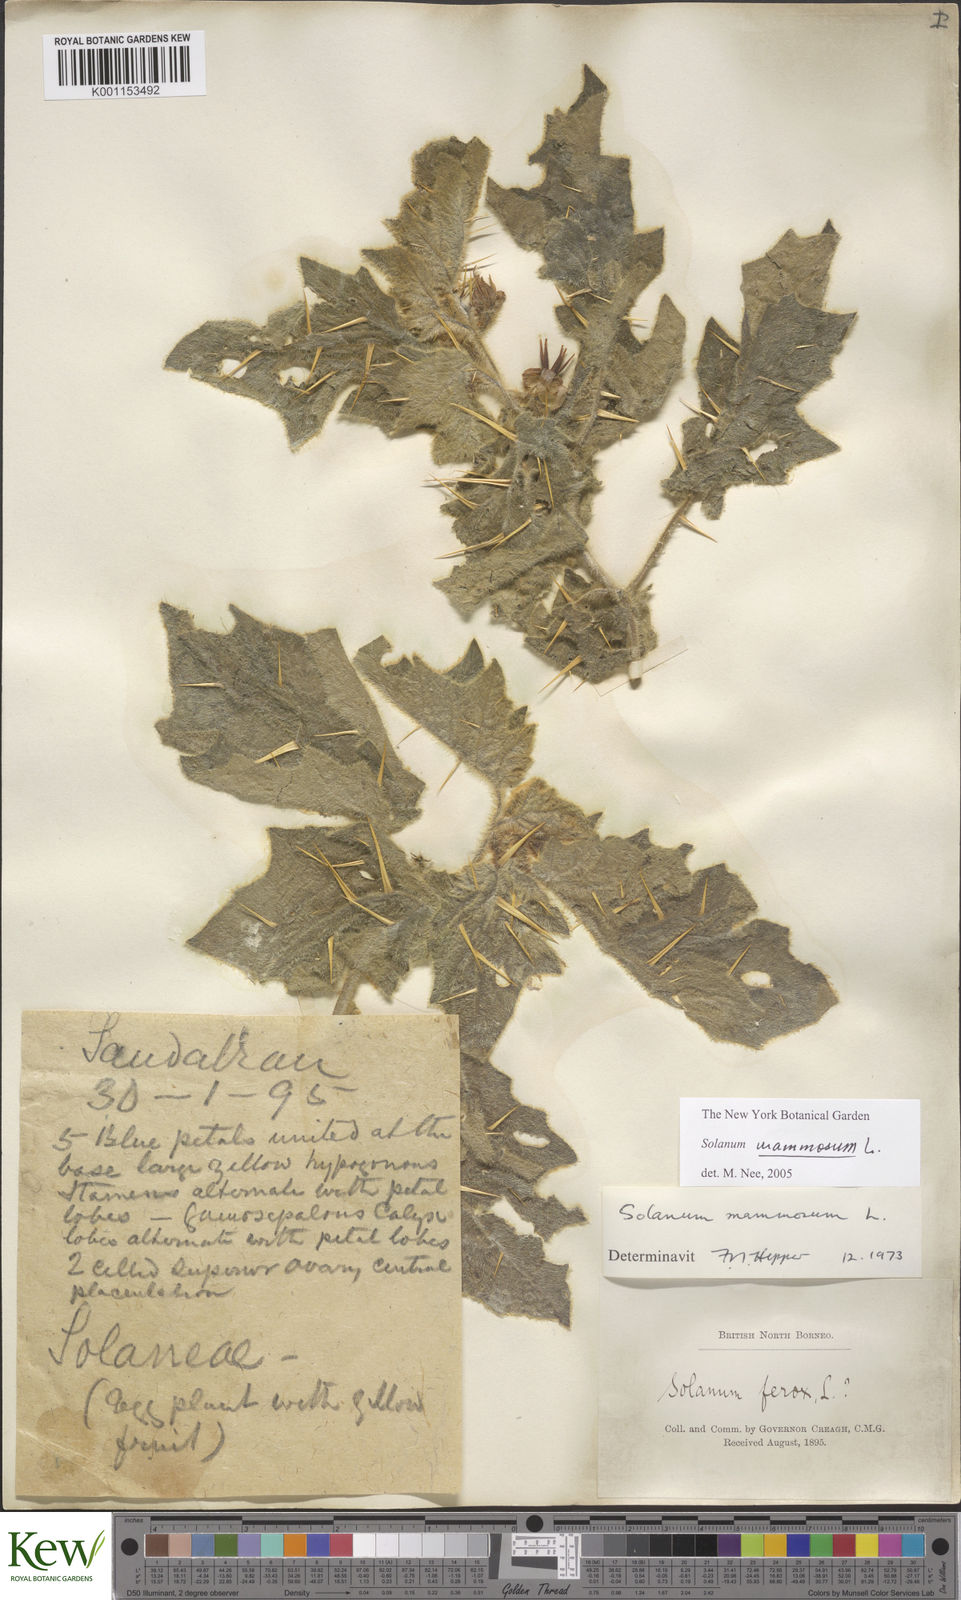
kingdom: Plantae
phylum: Tracheophyta
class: Magnoliopsida
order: Solanales
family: Solanaceae
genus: Solanum
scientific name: Solanum mammosum
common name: Nipple fruit
